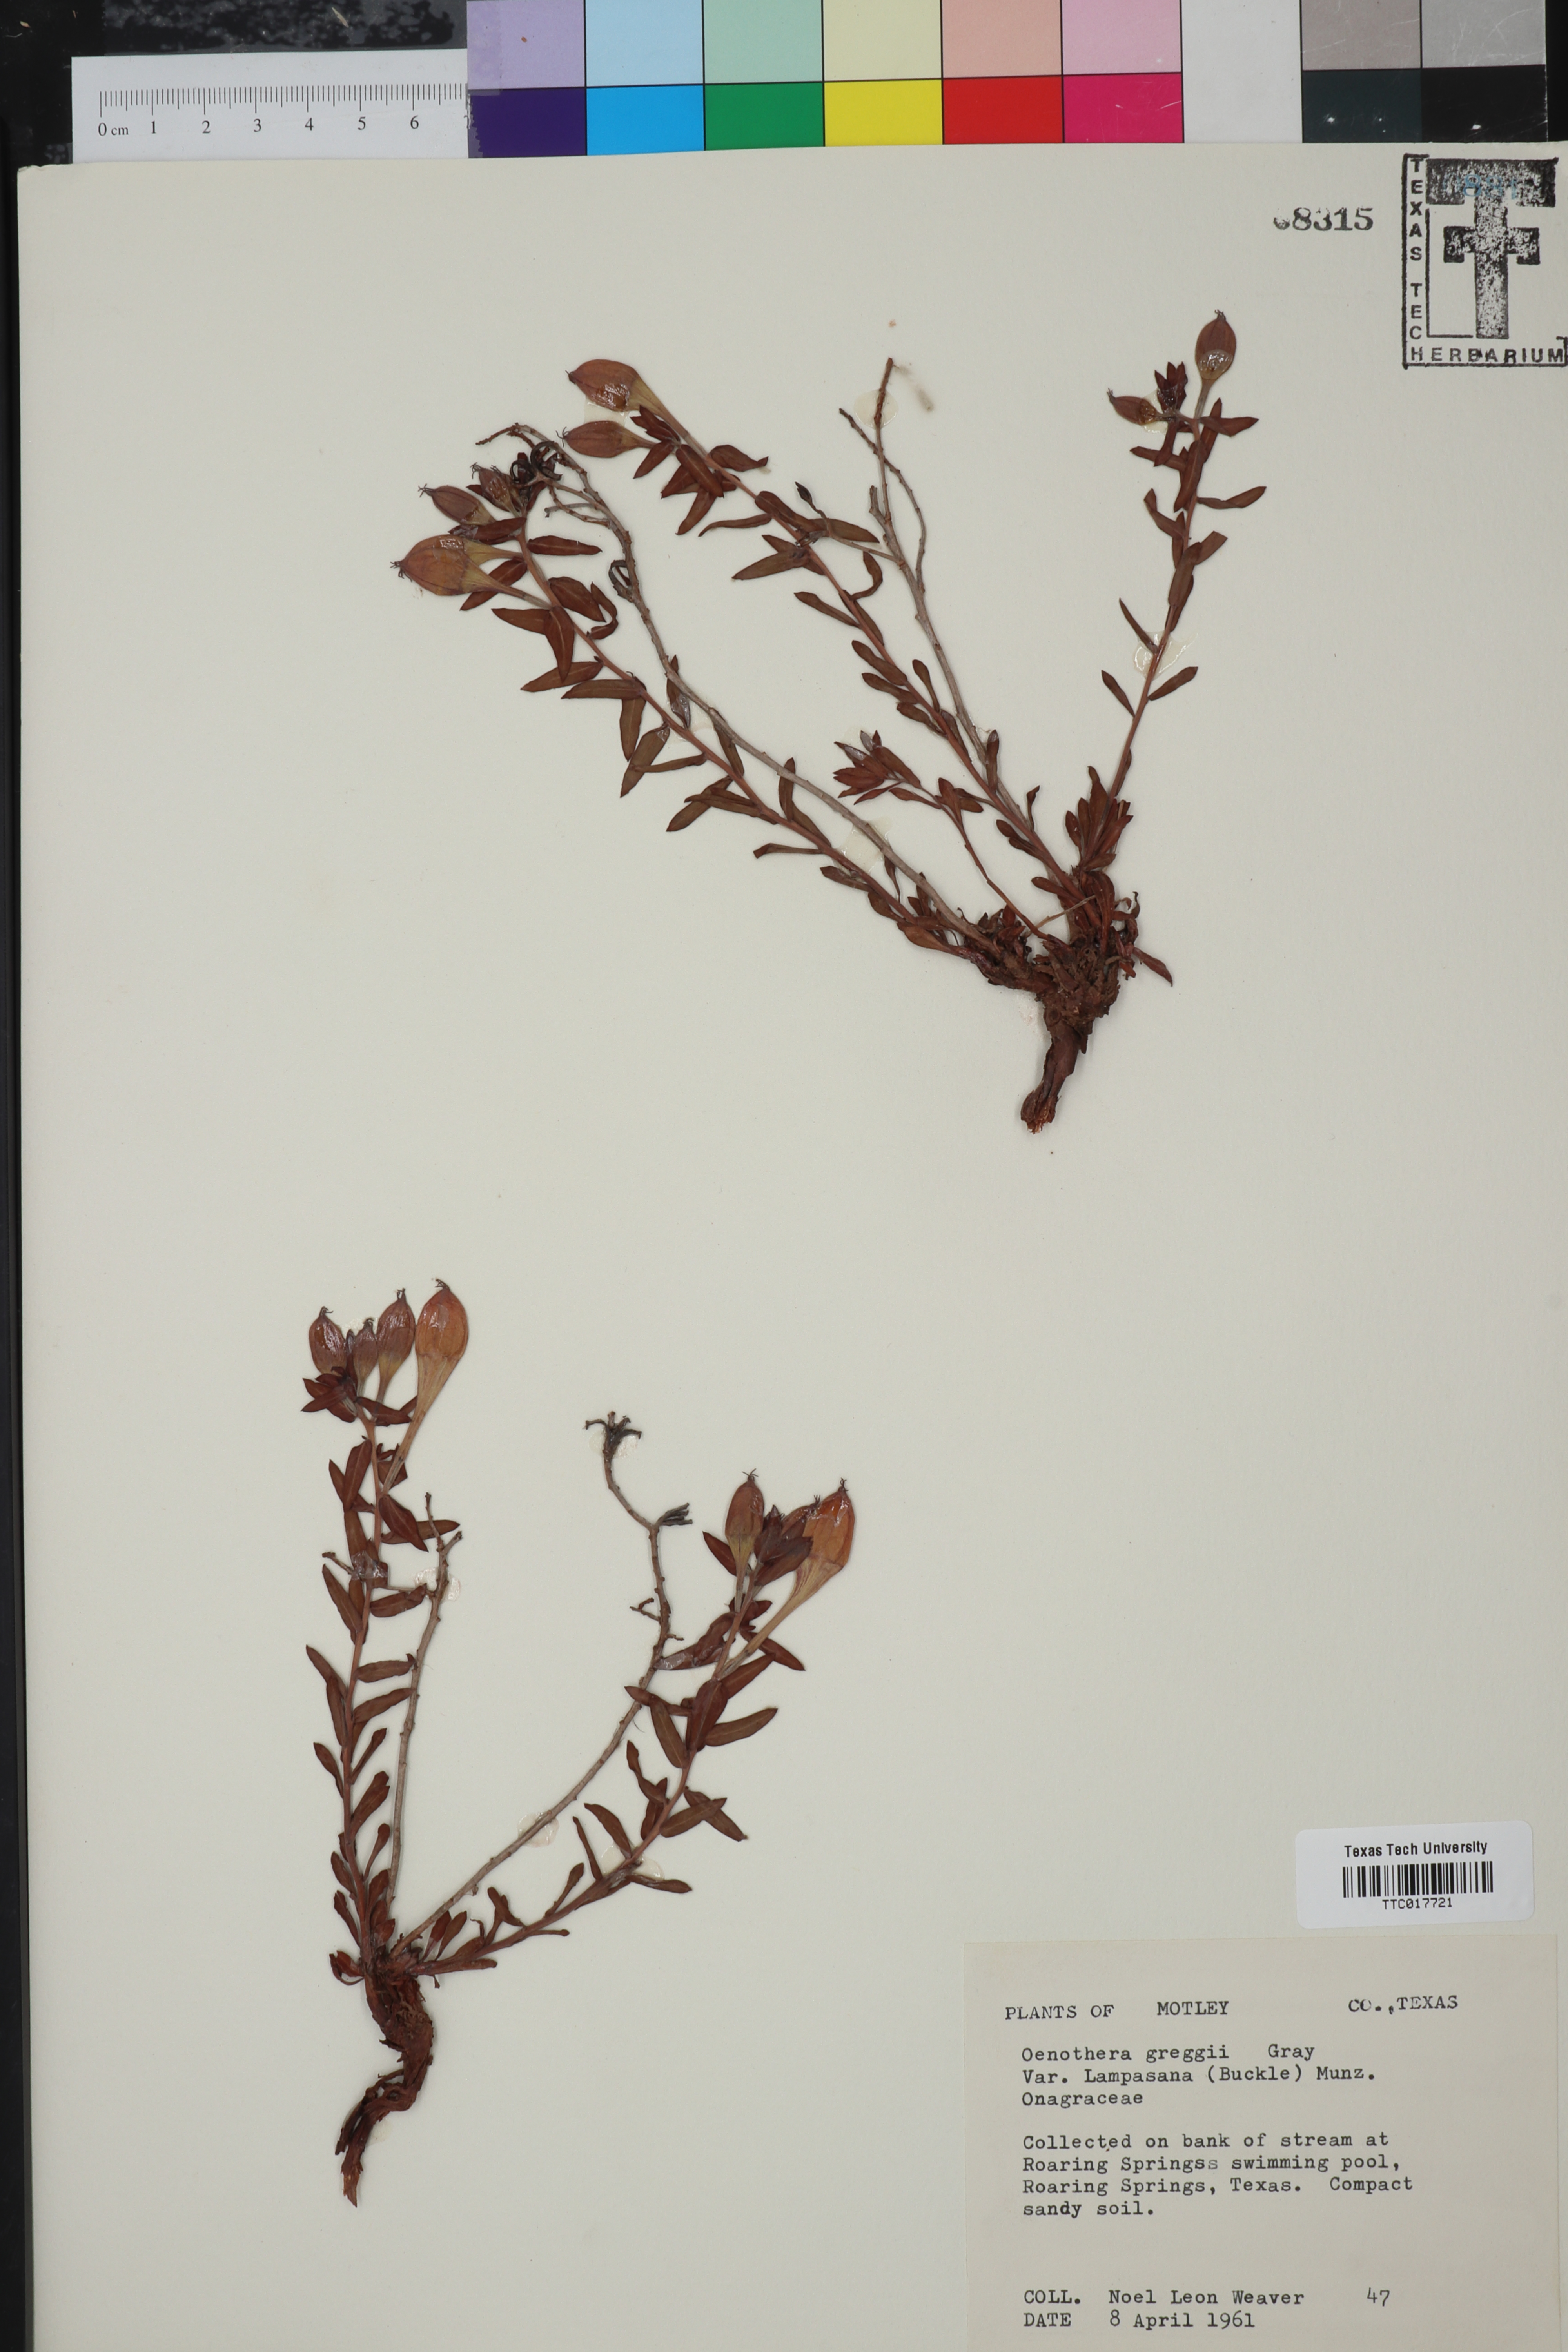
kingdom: Plantae
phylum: Tracheophyta
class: Magnoliopsida
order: Myrtales
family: Onagraceae
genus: Oenothera
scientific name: Oenothera hartwegii
